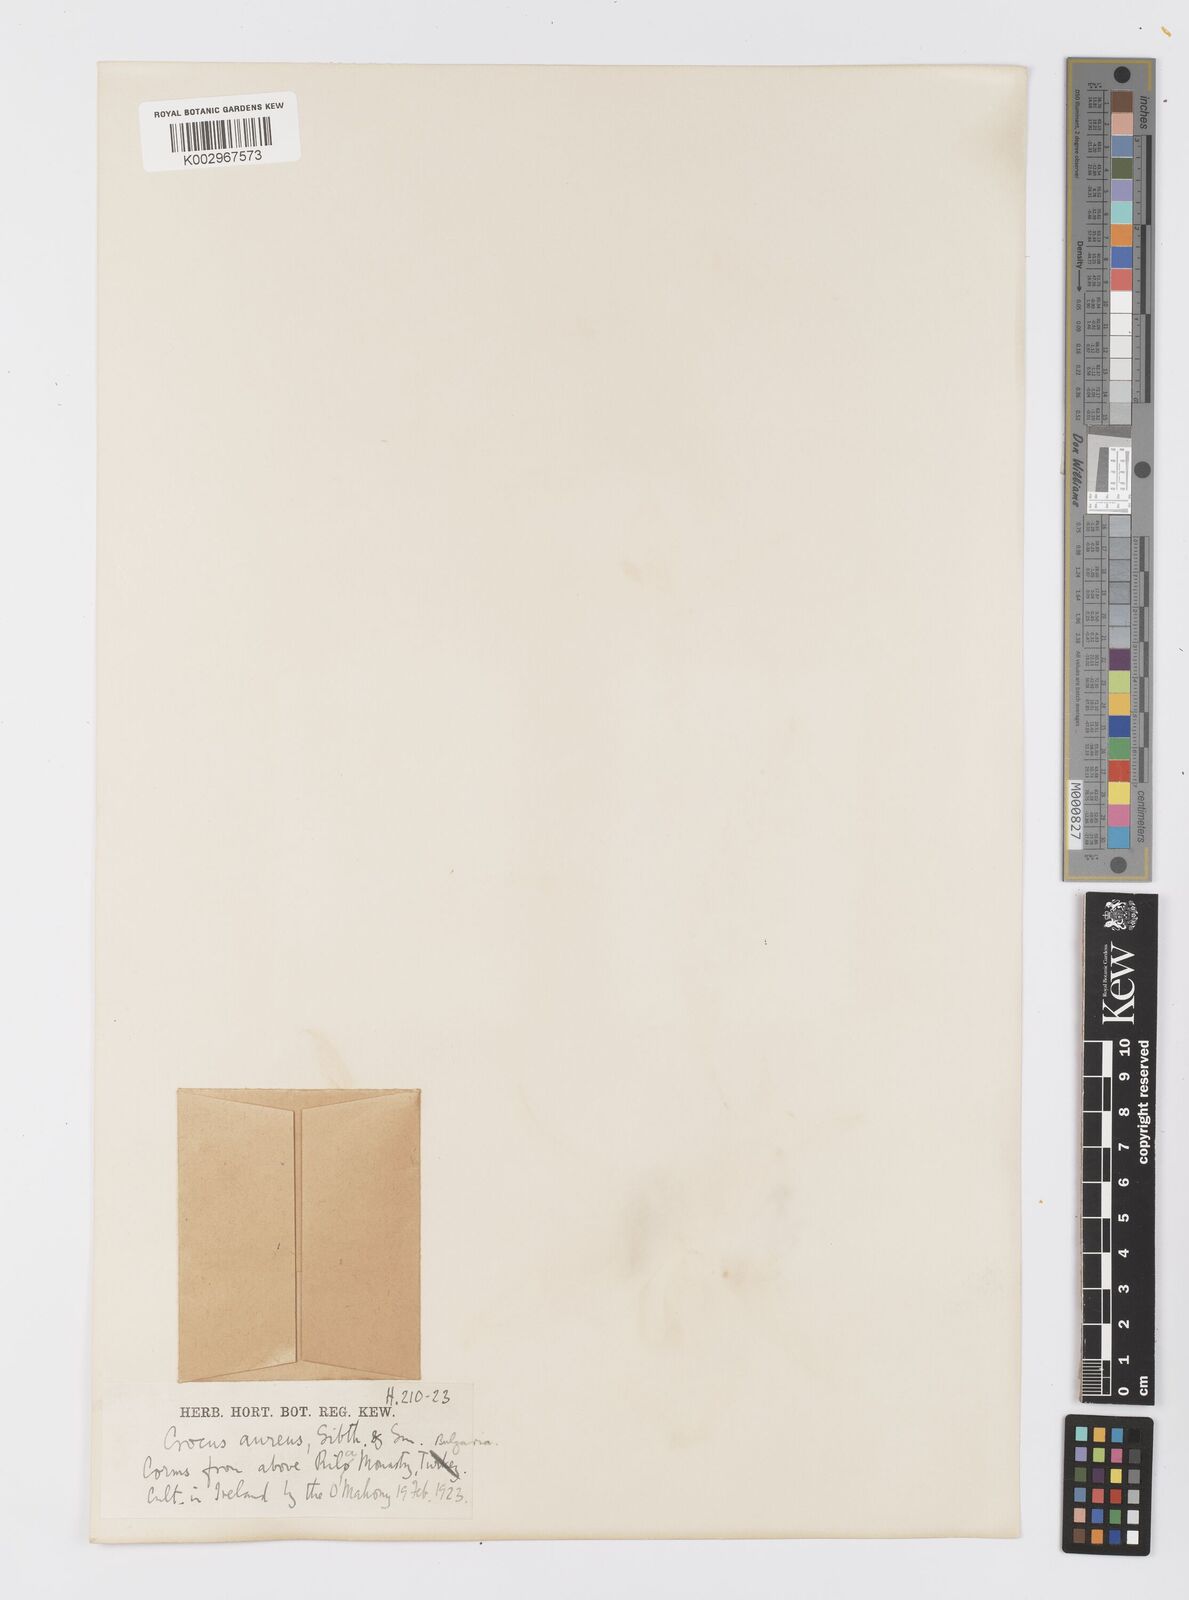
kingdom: Plantae
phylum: Tracheophyta
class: Liliopsida
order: Asparagales
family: Iridaceae
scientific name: Iridaceae
